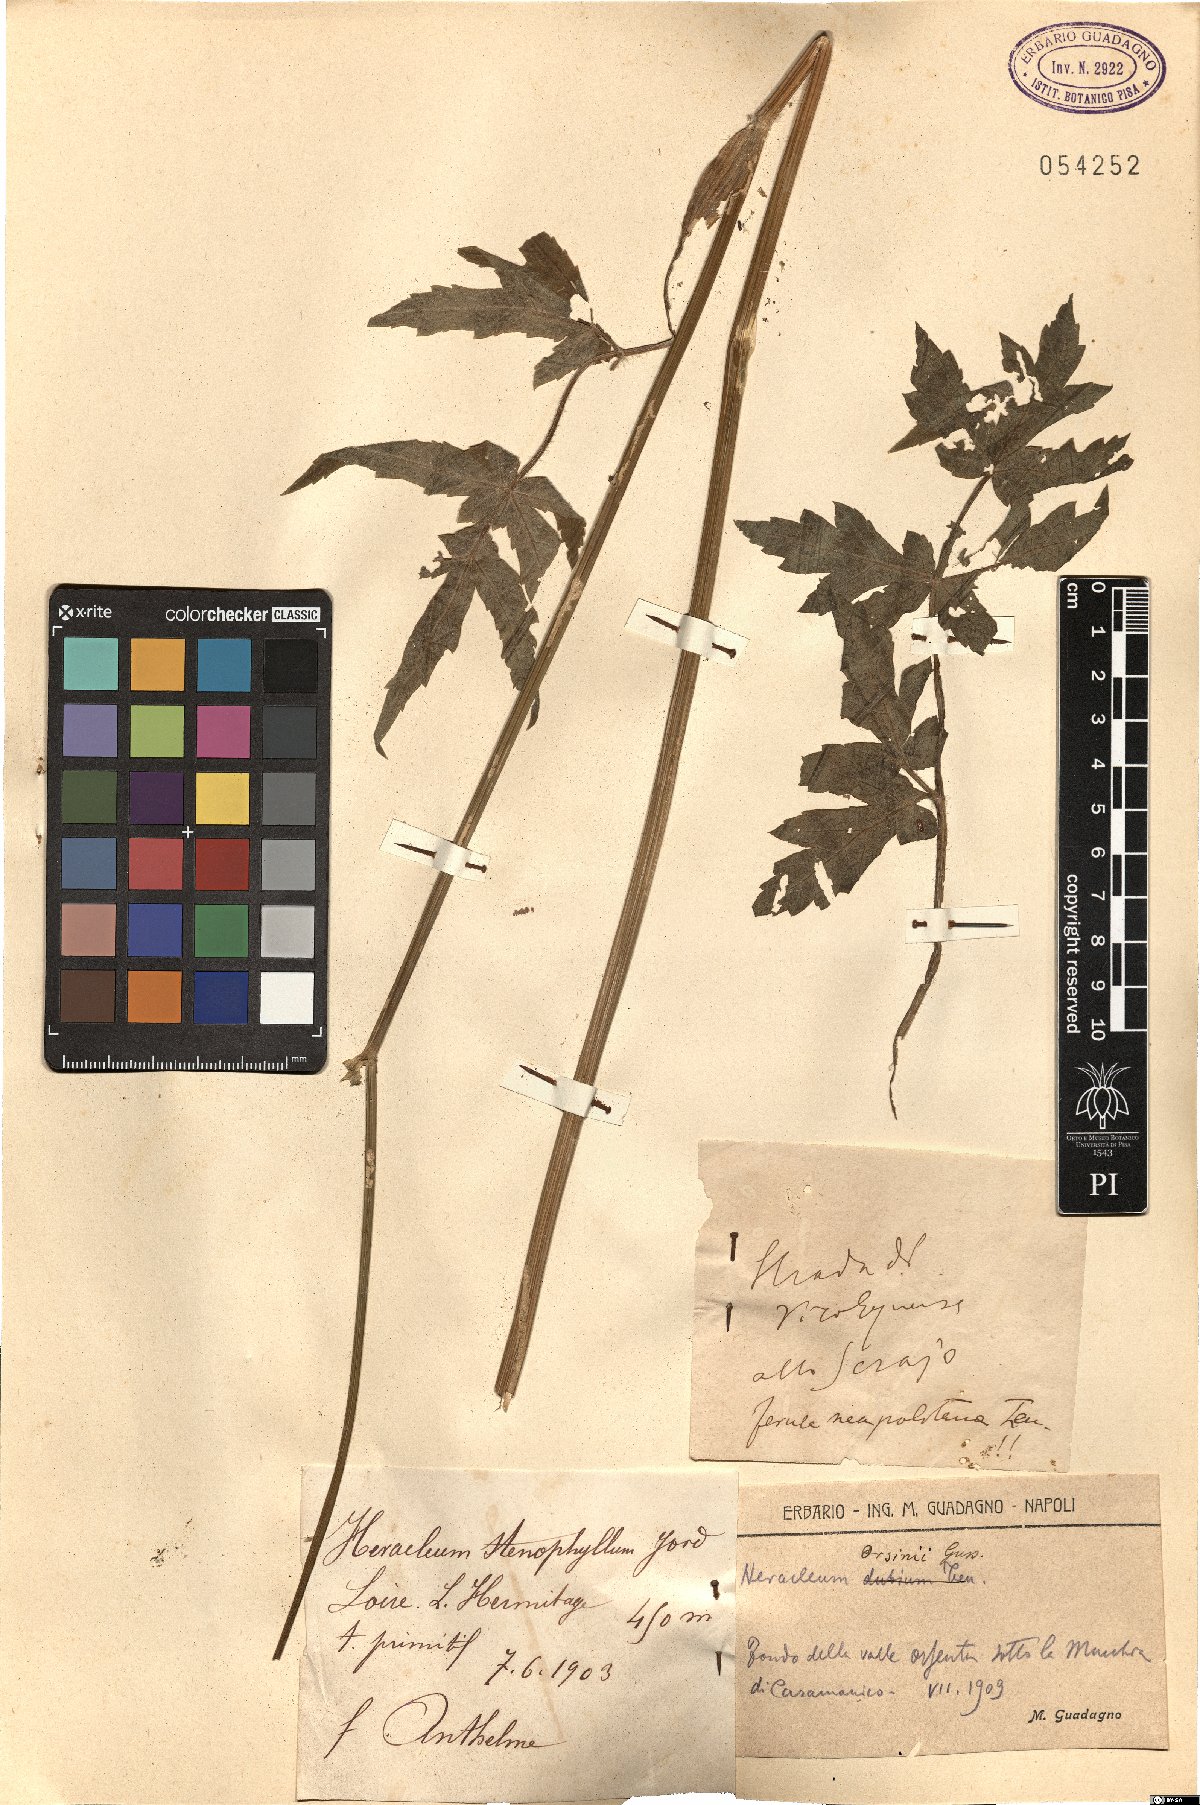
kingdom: Plantae
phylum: Tracheophyta
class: Magnoliopsida
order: Apiales
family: Apiaceae
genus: Heracleum
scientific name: Heracleum sphondylium
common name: Hogweed
